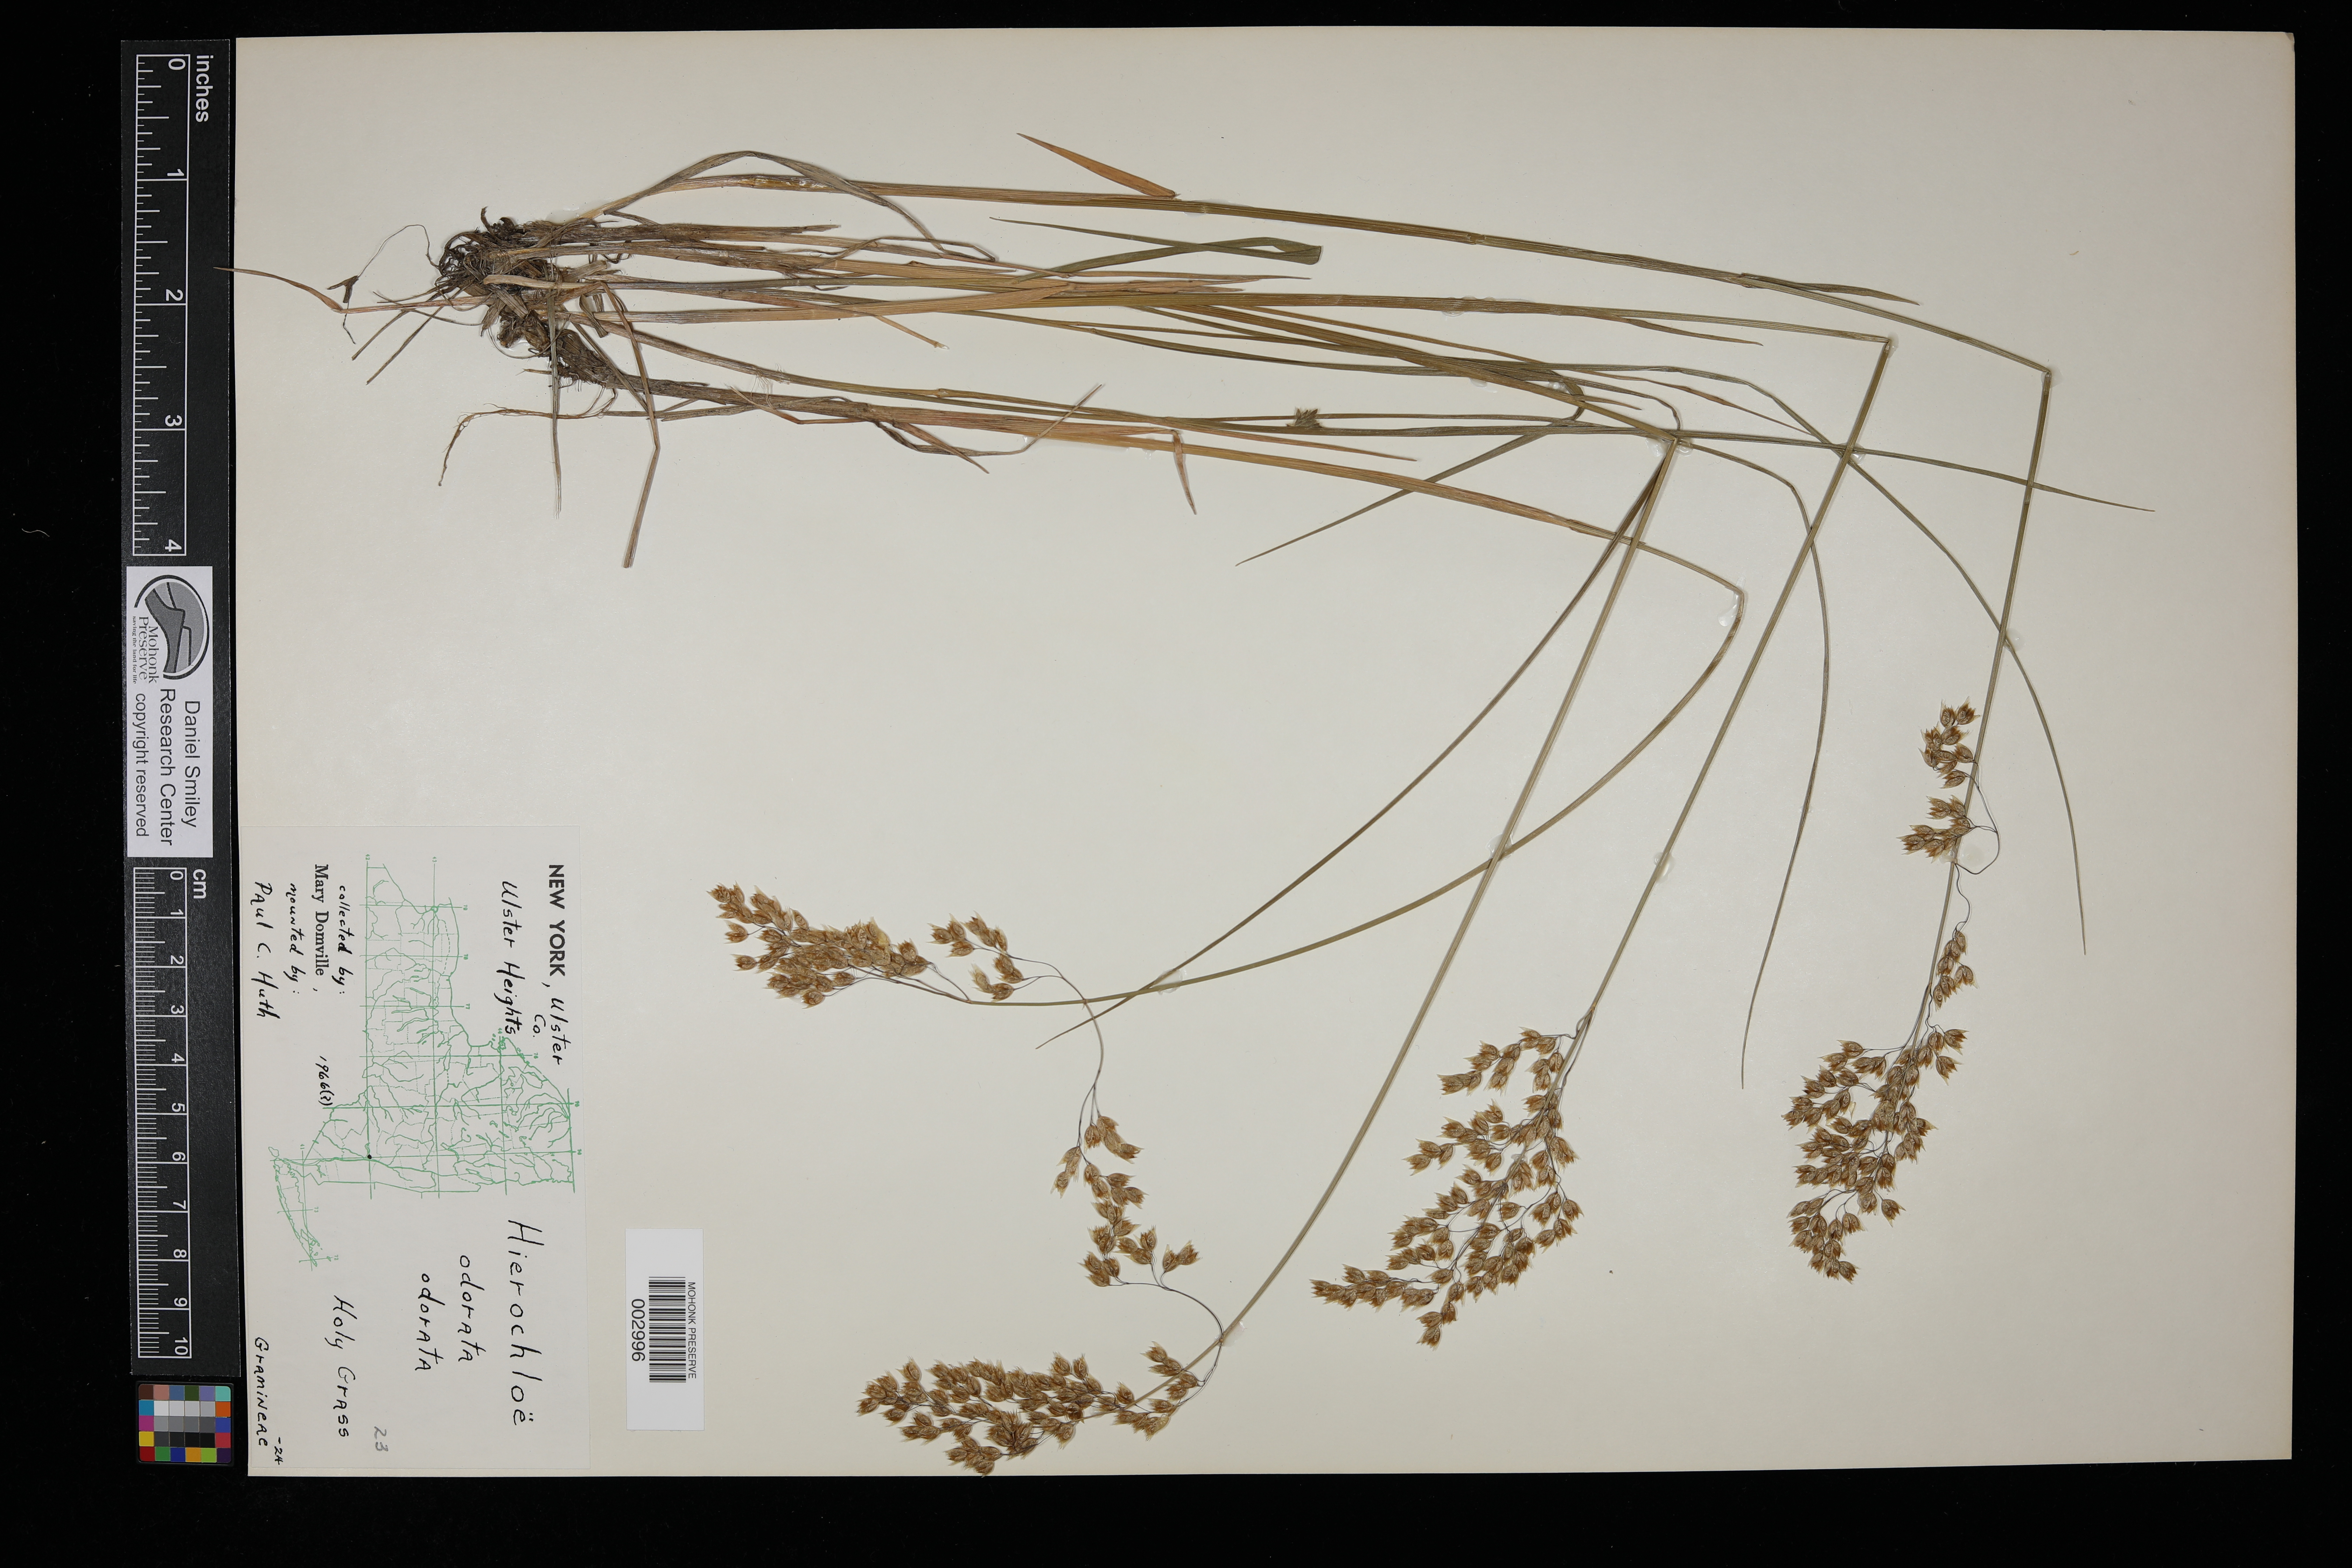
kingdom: Plantae
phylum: Tracheophyta
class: Liliopsida
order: Poales
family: Poaceae
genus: Anthoxanthum
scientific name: Anthoxanthum nitens
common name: Holy grass
